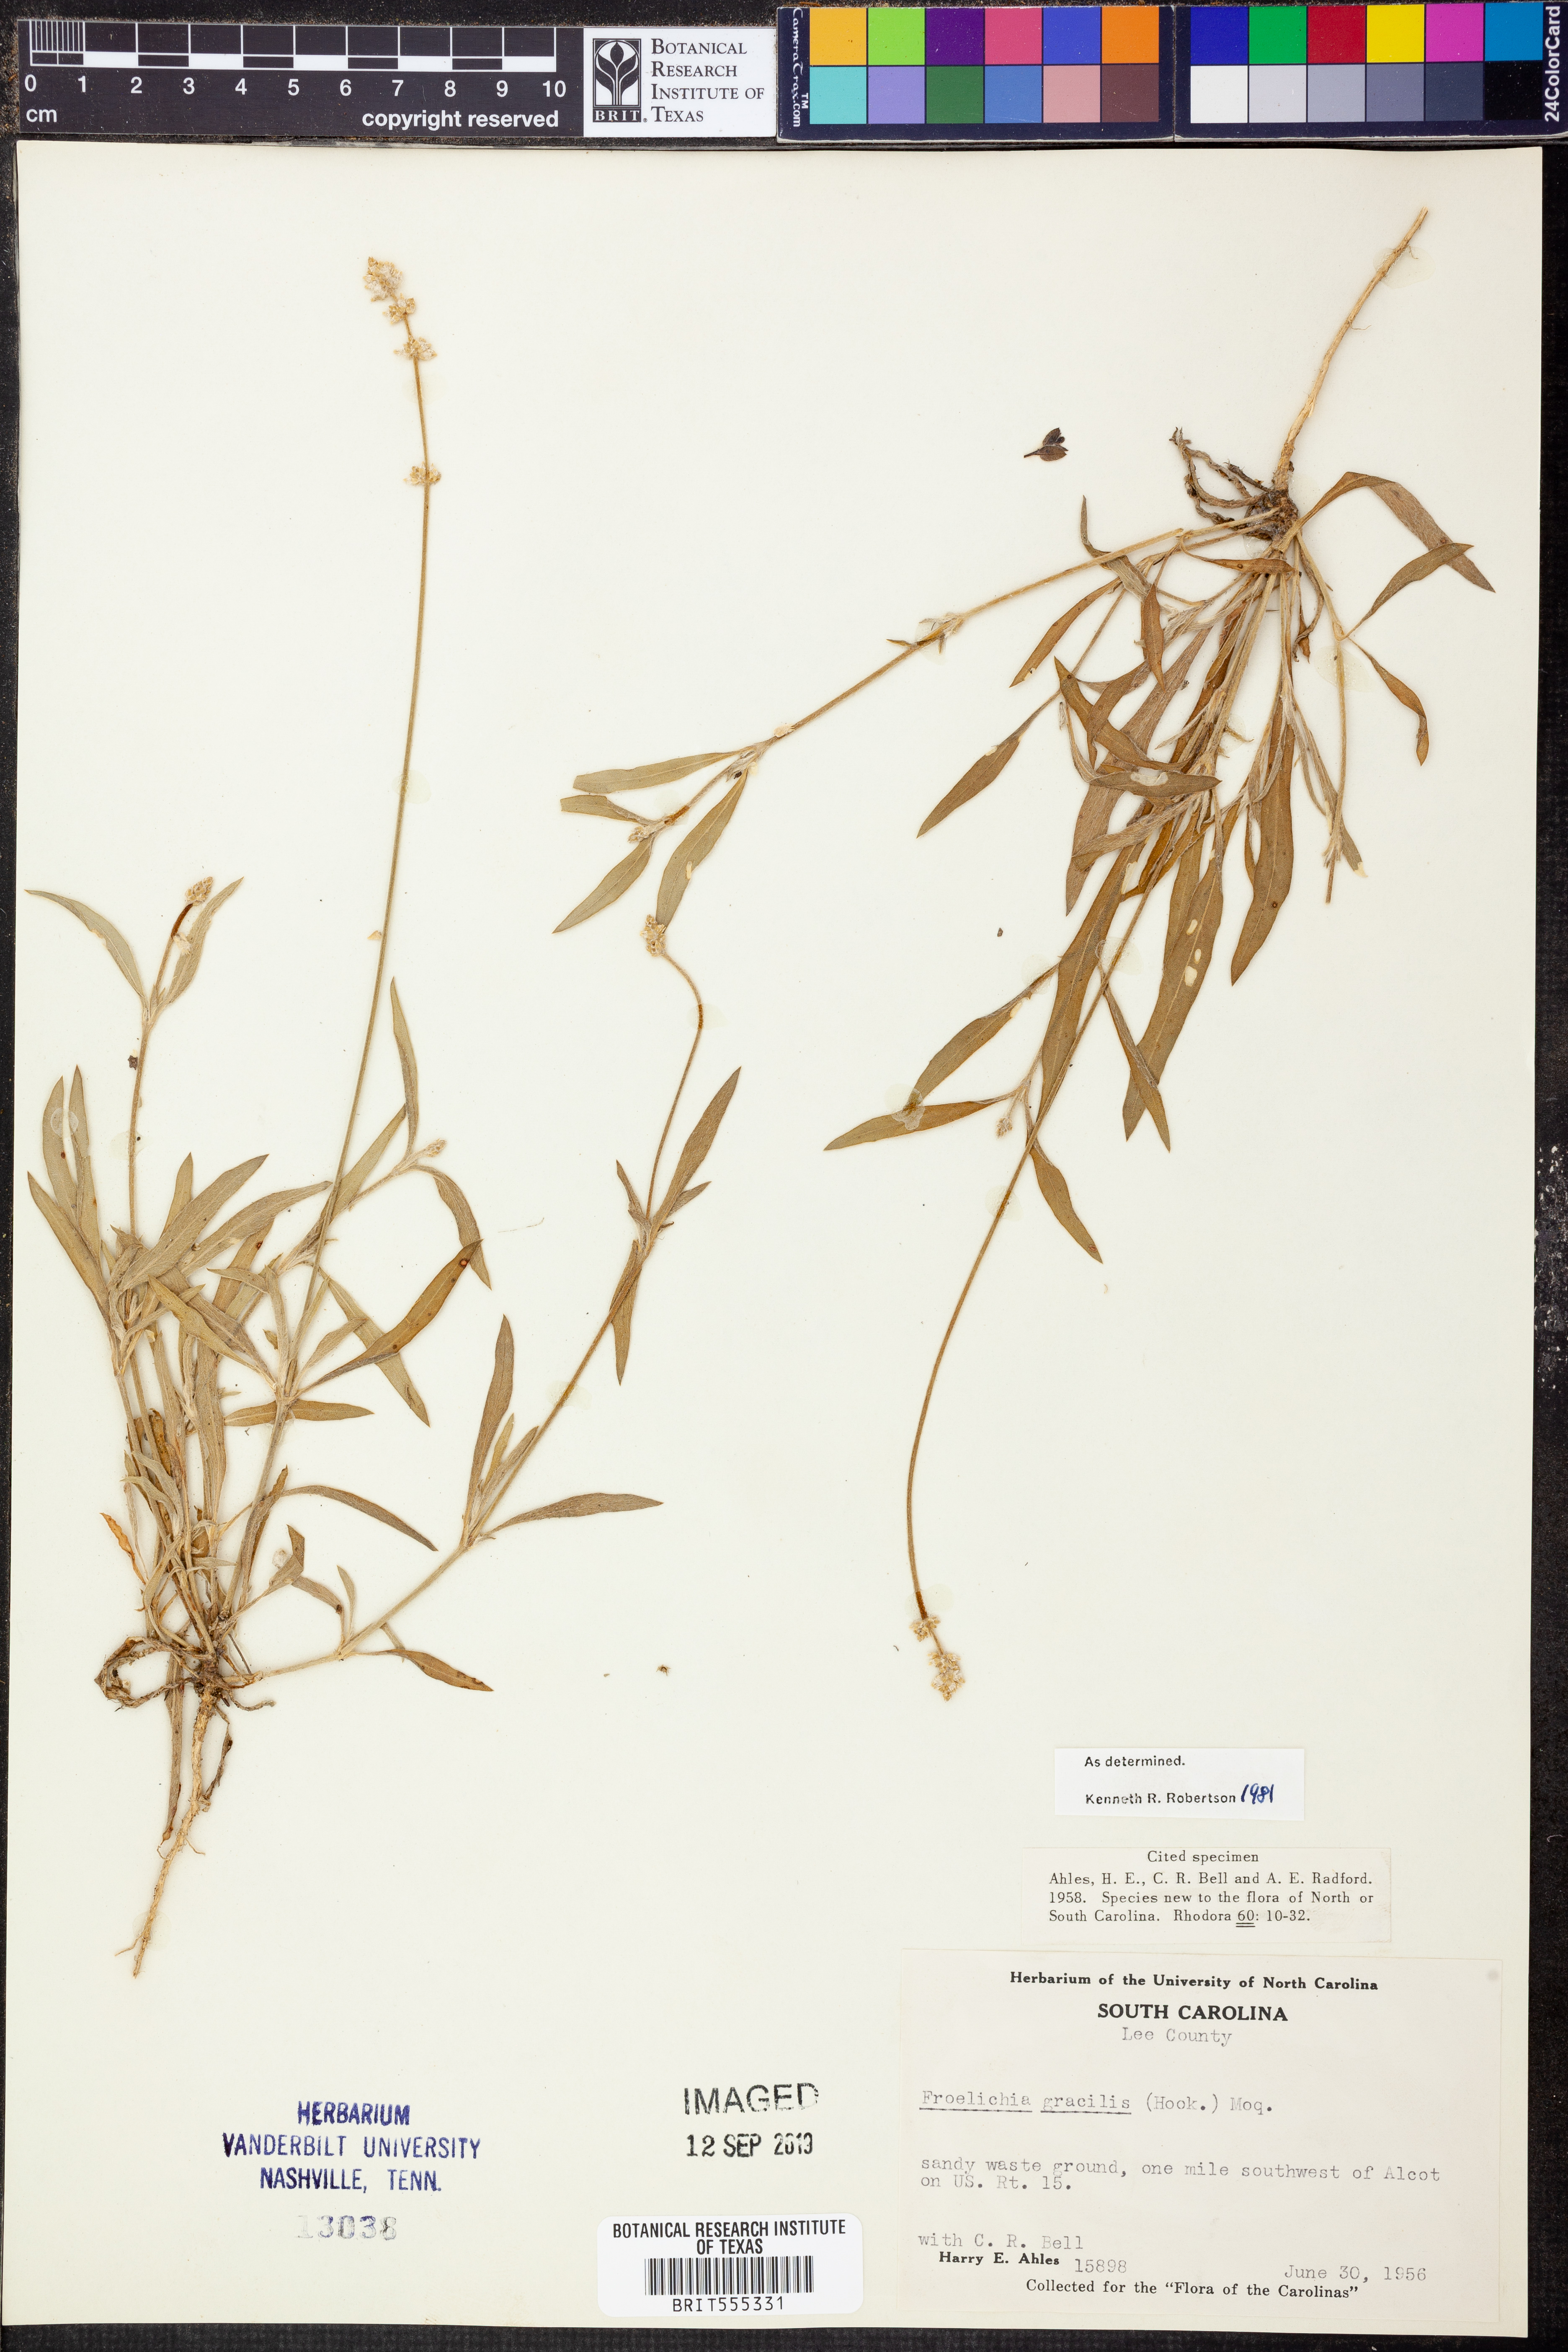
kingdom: Plantae
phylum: Tracheophyta
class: Magnoliopsida
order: Caryophyllales
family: Amaranthaceae
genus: Gomphrena
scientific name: Gomphrena nealleyi
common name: Nealley's globe-amaranth
